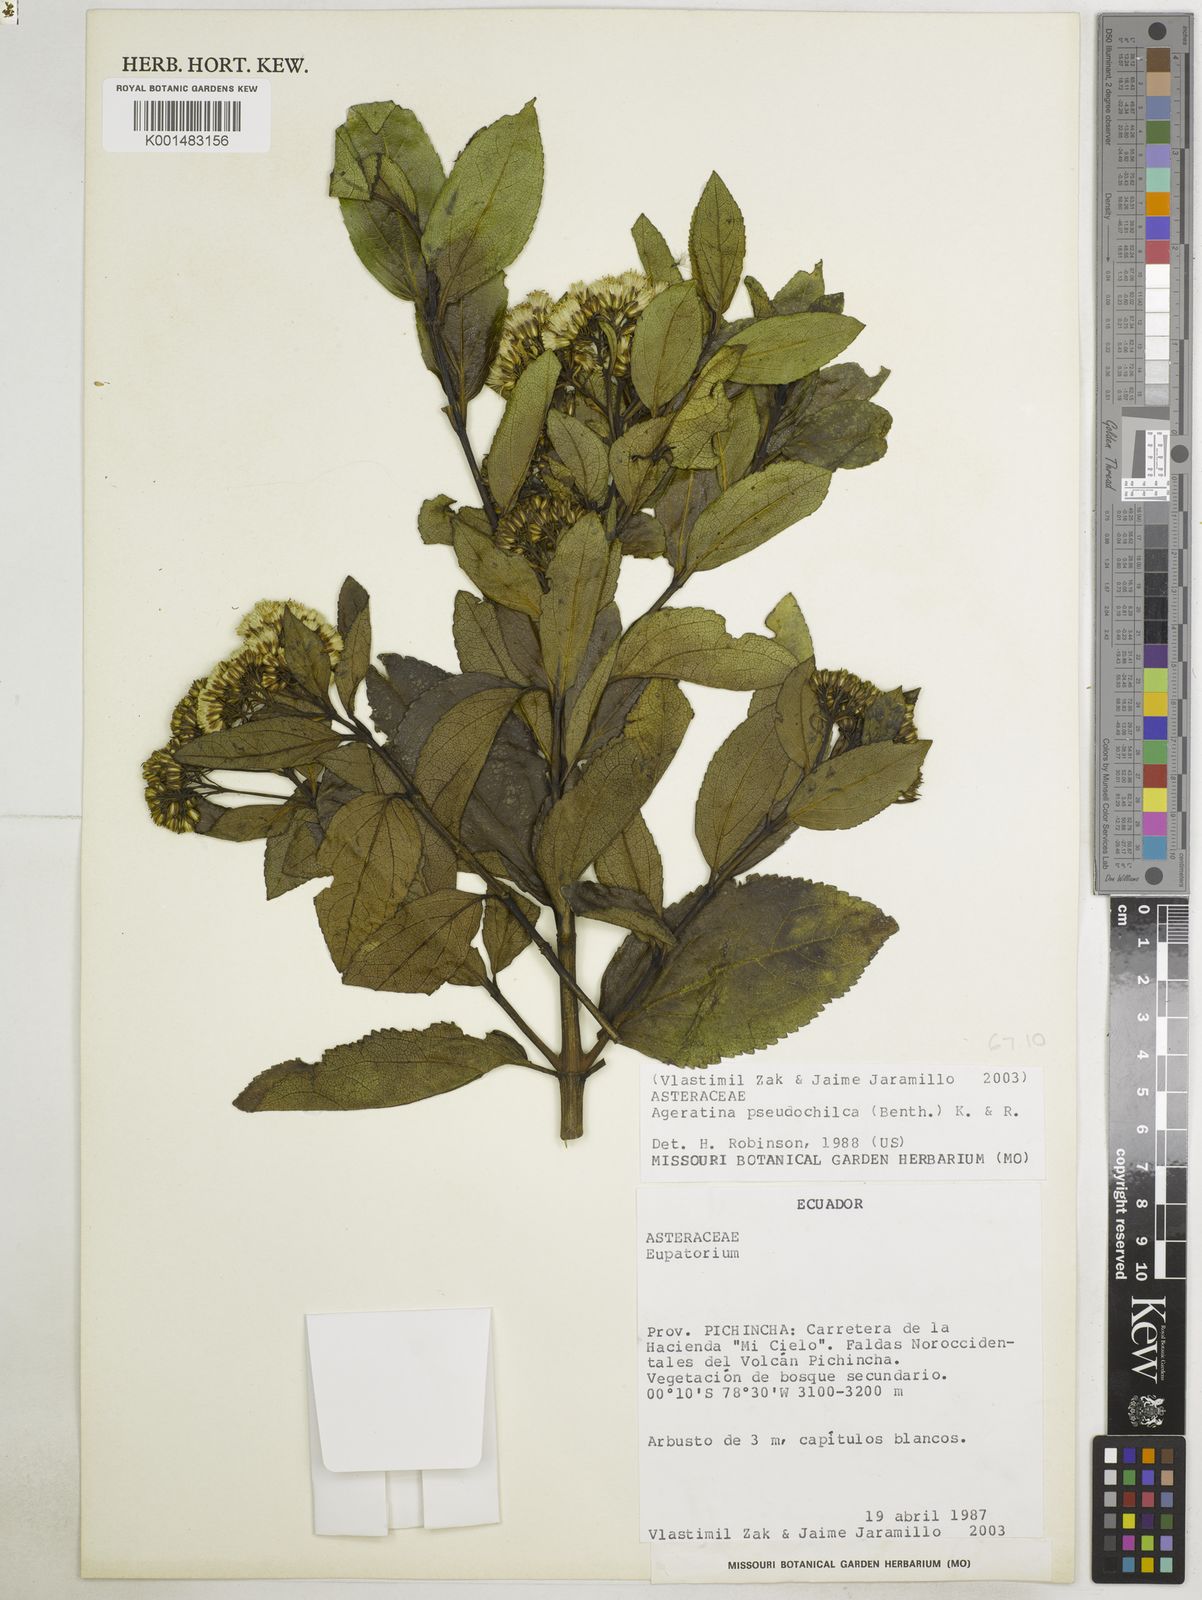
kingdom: Plantae
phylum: Tracheophyta
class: Magnoliopsida
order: Asterales
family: Asteraceae
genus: Ageratina
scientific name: Ageratina pseudochilca
